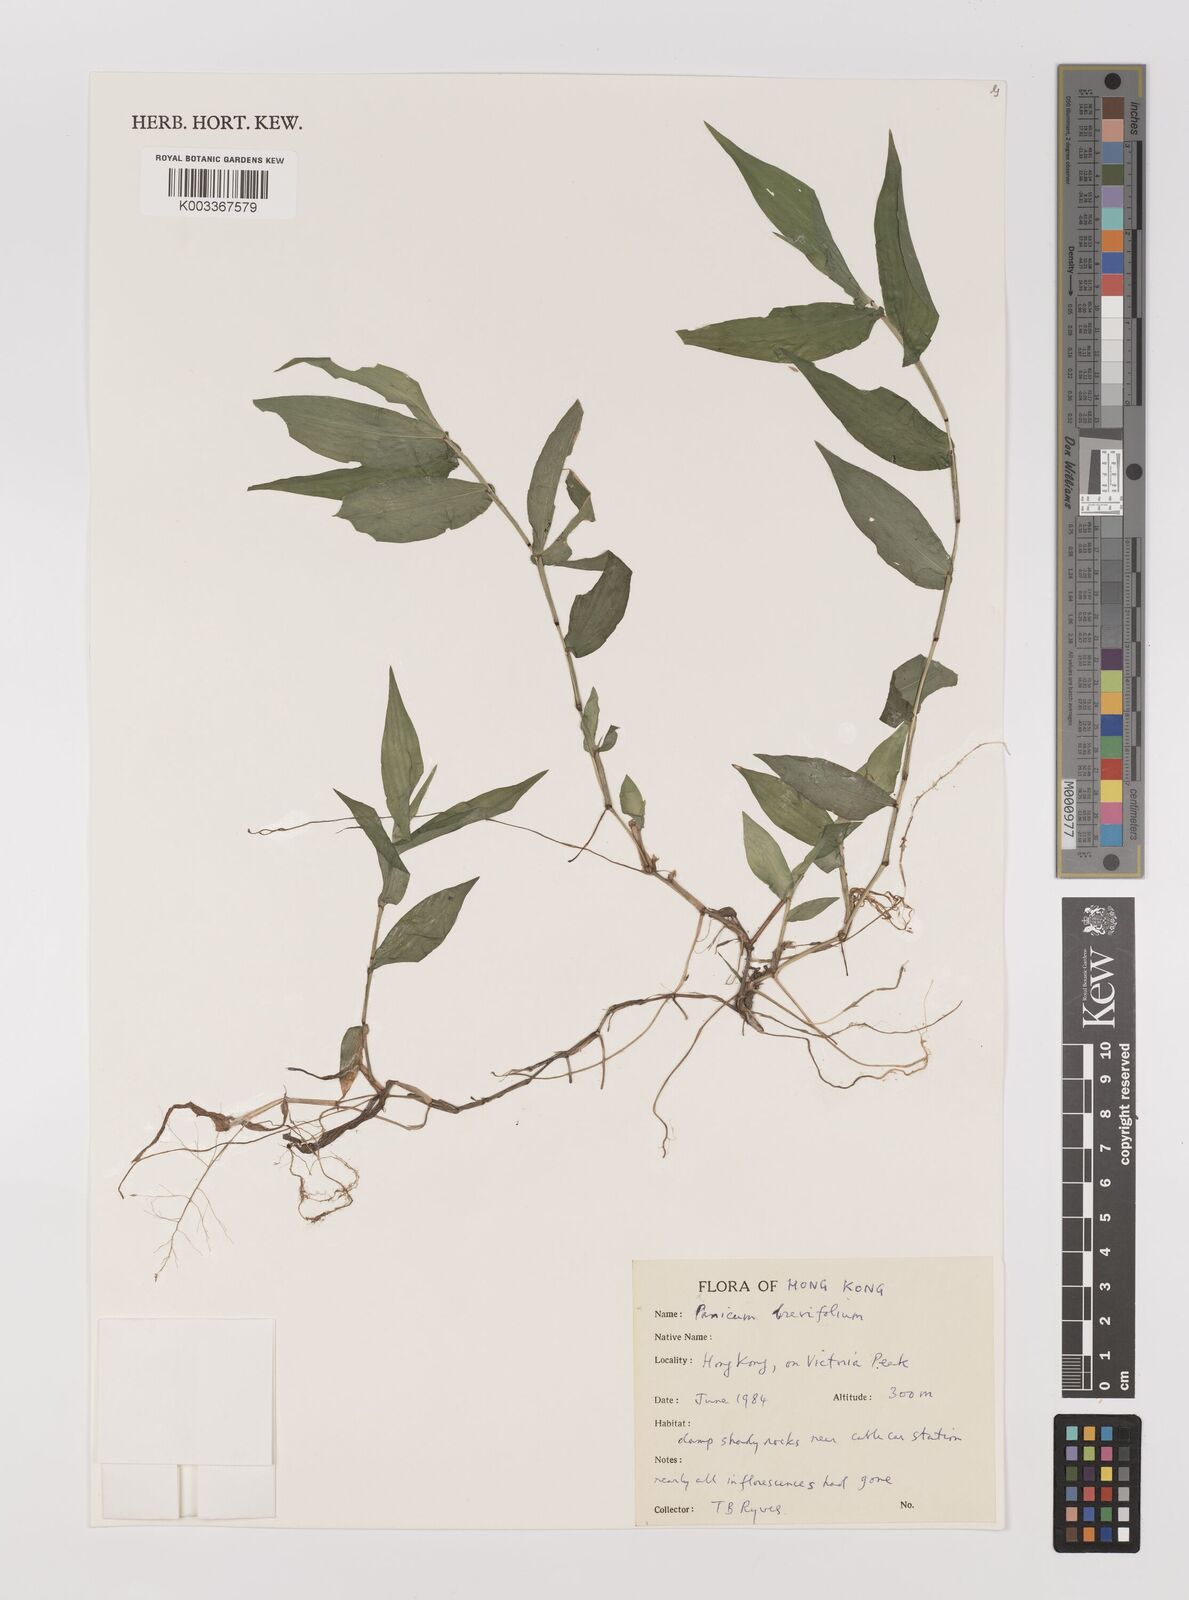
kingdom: Plantae
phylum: Tracheophyta
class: Liliopsida
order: Poales
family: Poaceae
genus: Panicum
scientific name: Panicum brevifolium
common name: Shortleaf panic grass
